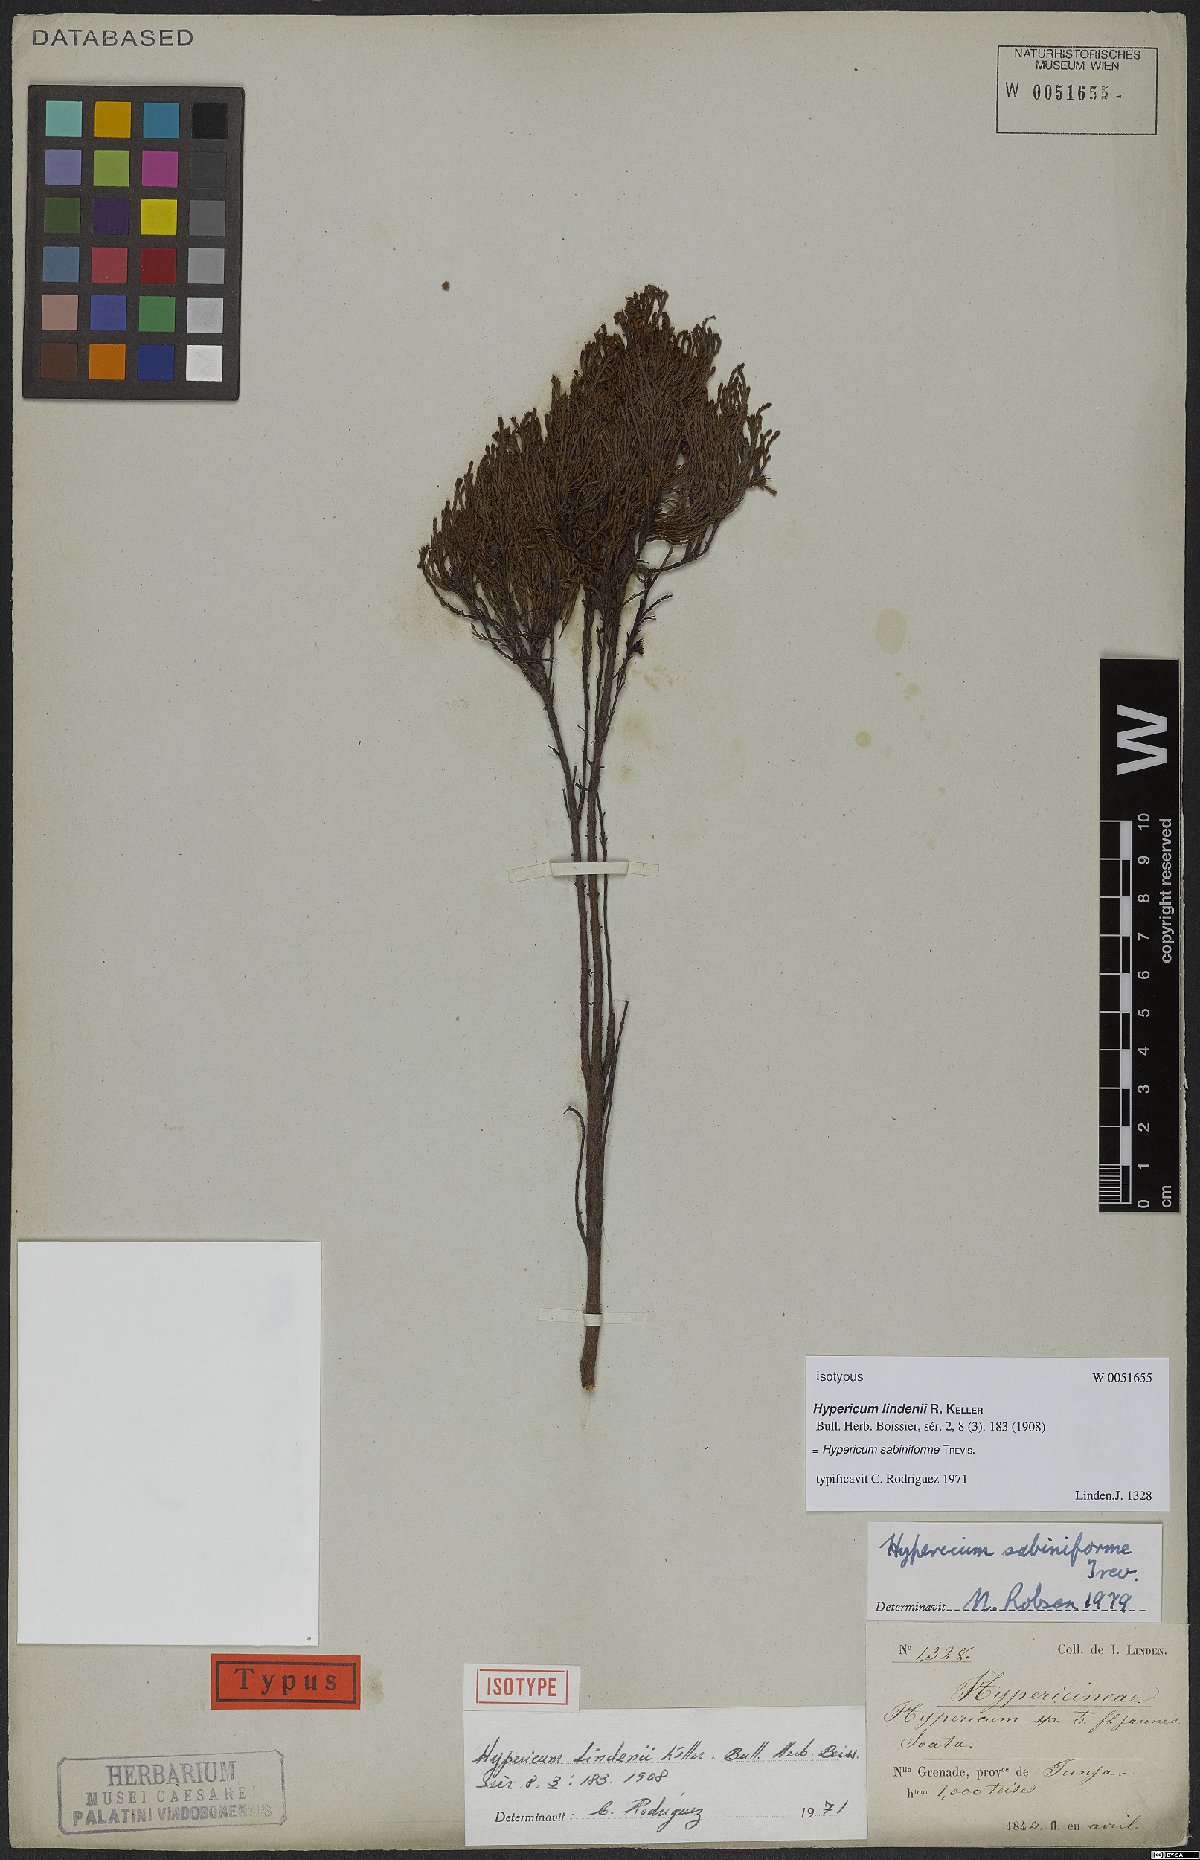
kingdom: Plantae
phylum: Tracheophyta
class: Magnoliopsida
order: Malpighiales
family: Hypericaceae
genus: Hypericum
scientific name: Hypericum sabiniforme
